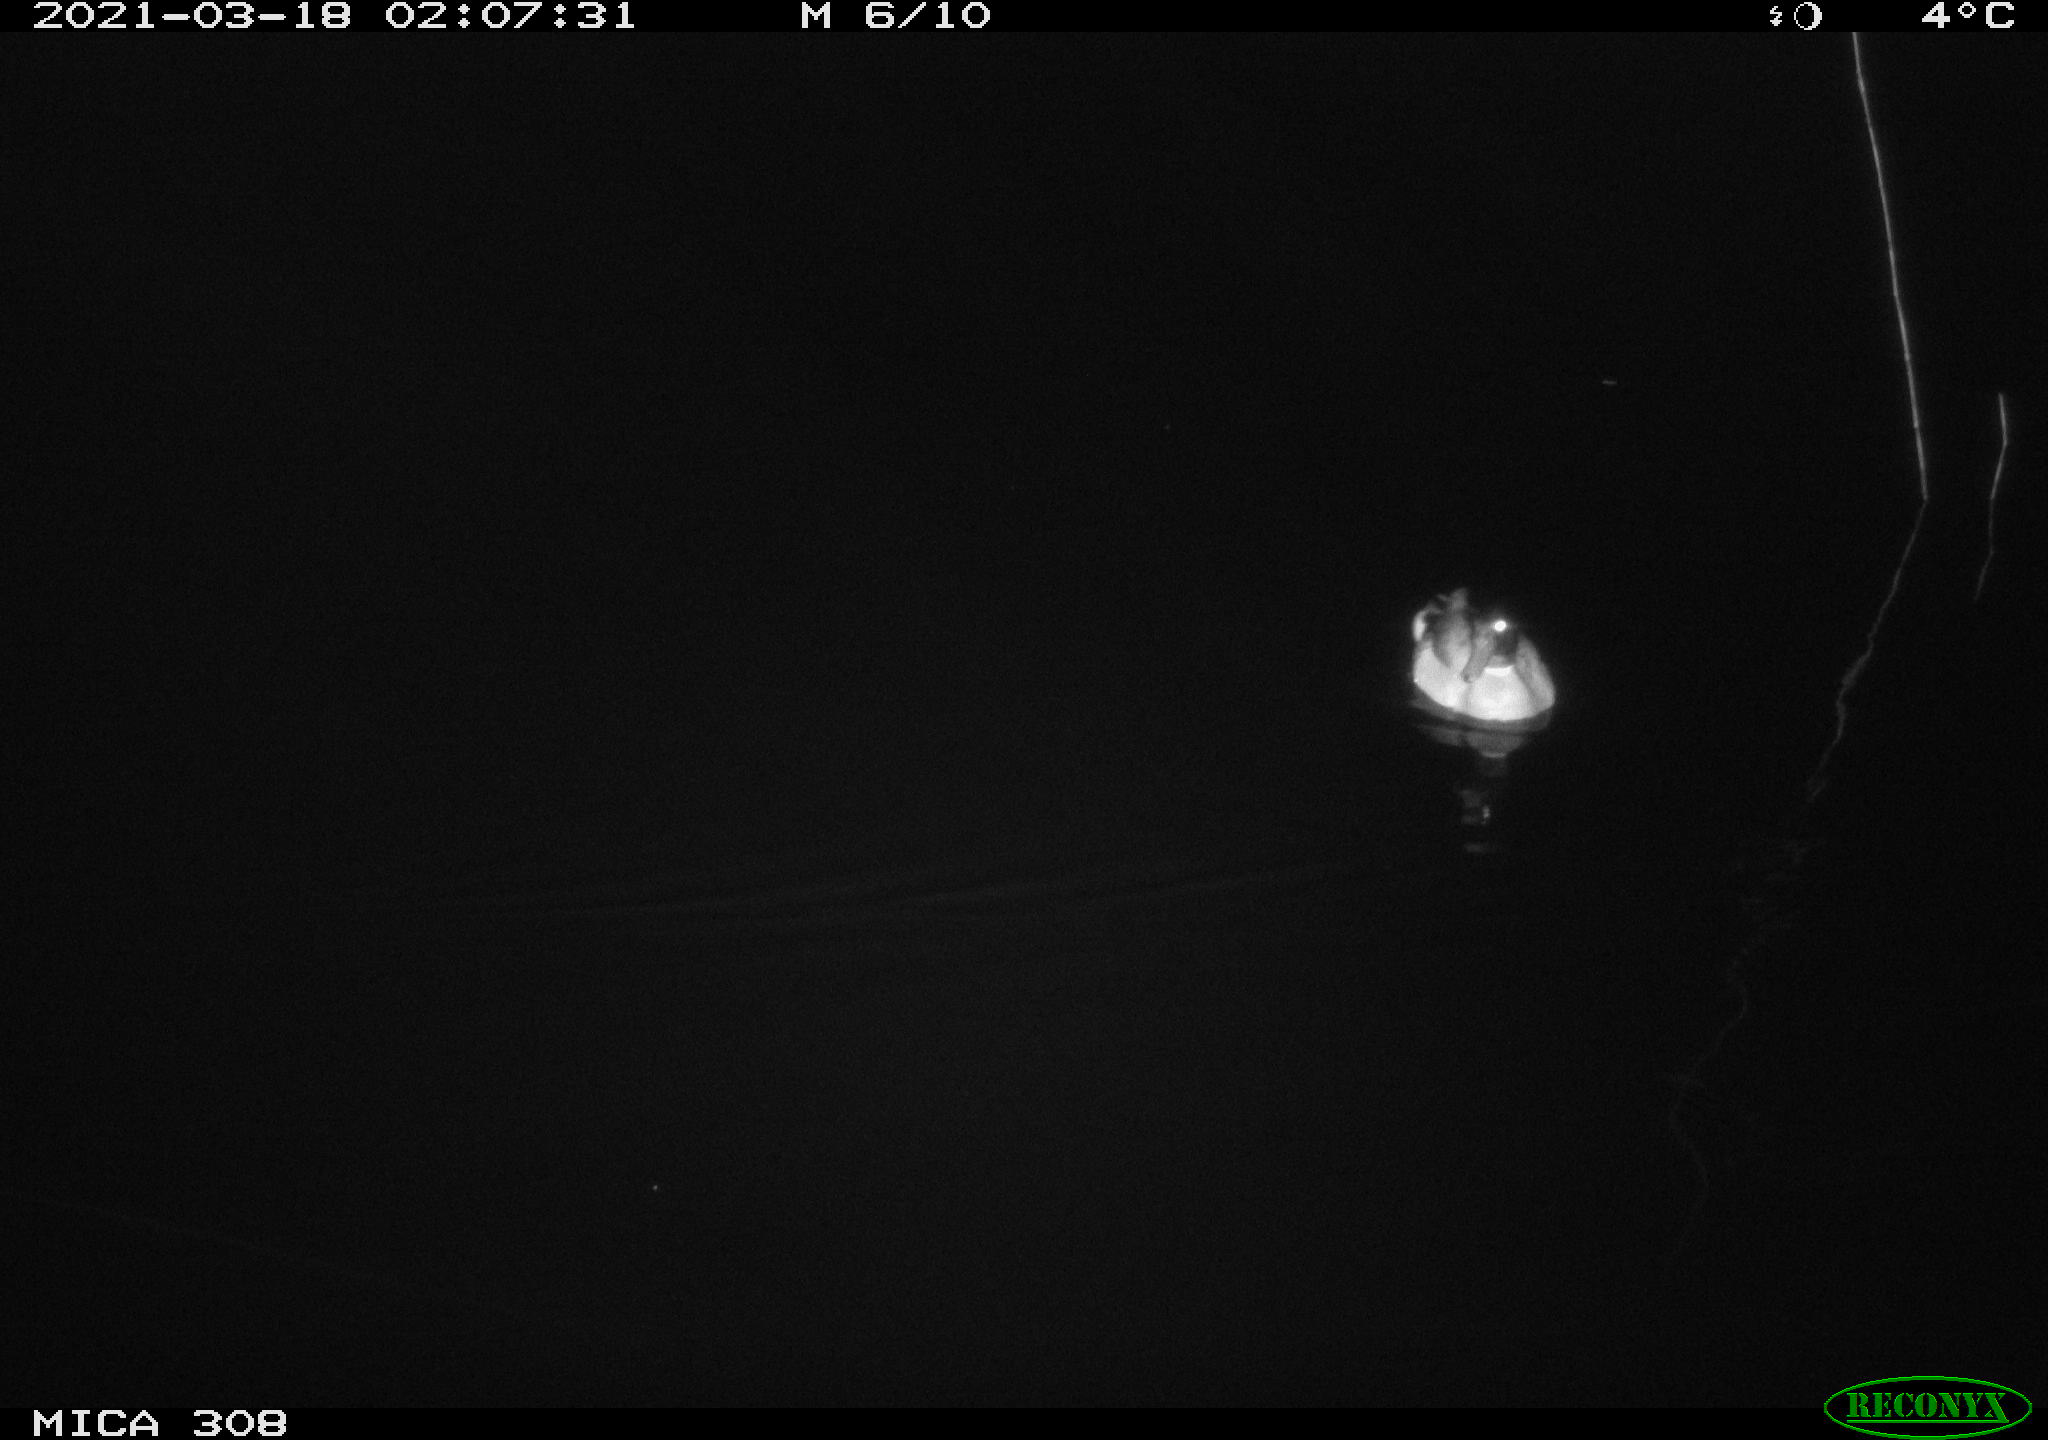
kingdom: Animalia
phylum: Chordata
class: Aves
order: Anseriformes
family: Anatidae
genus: Anas
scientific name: Anas platyrhynchos
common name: Mallard
